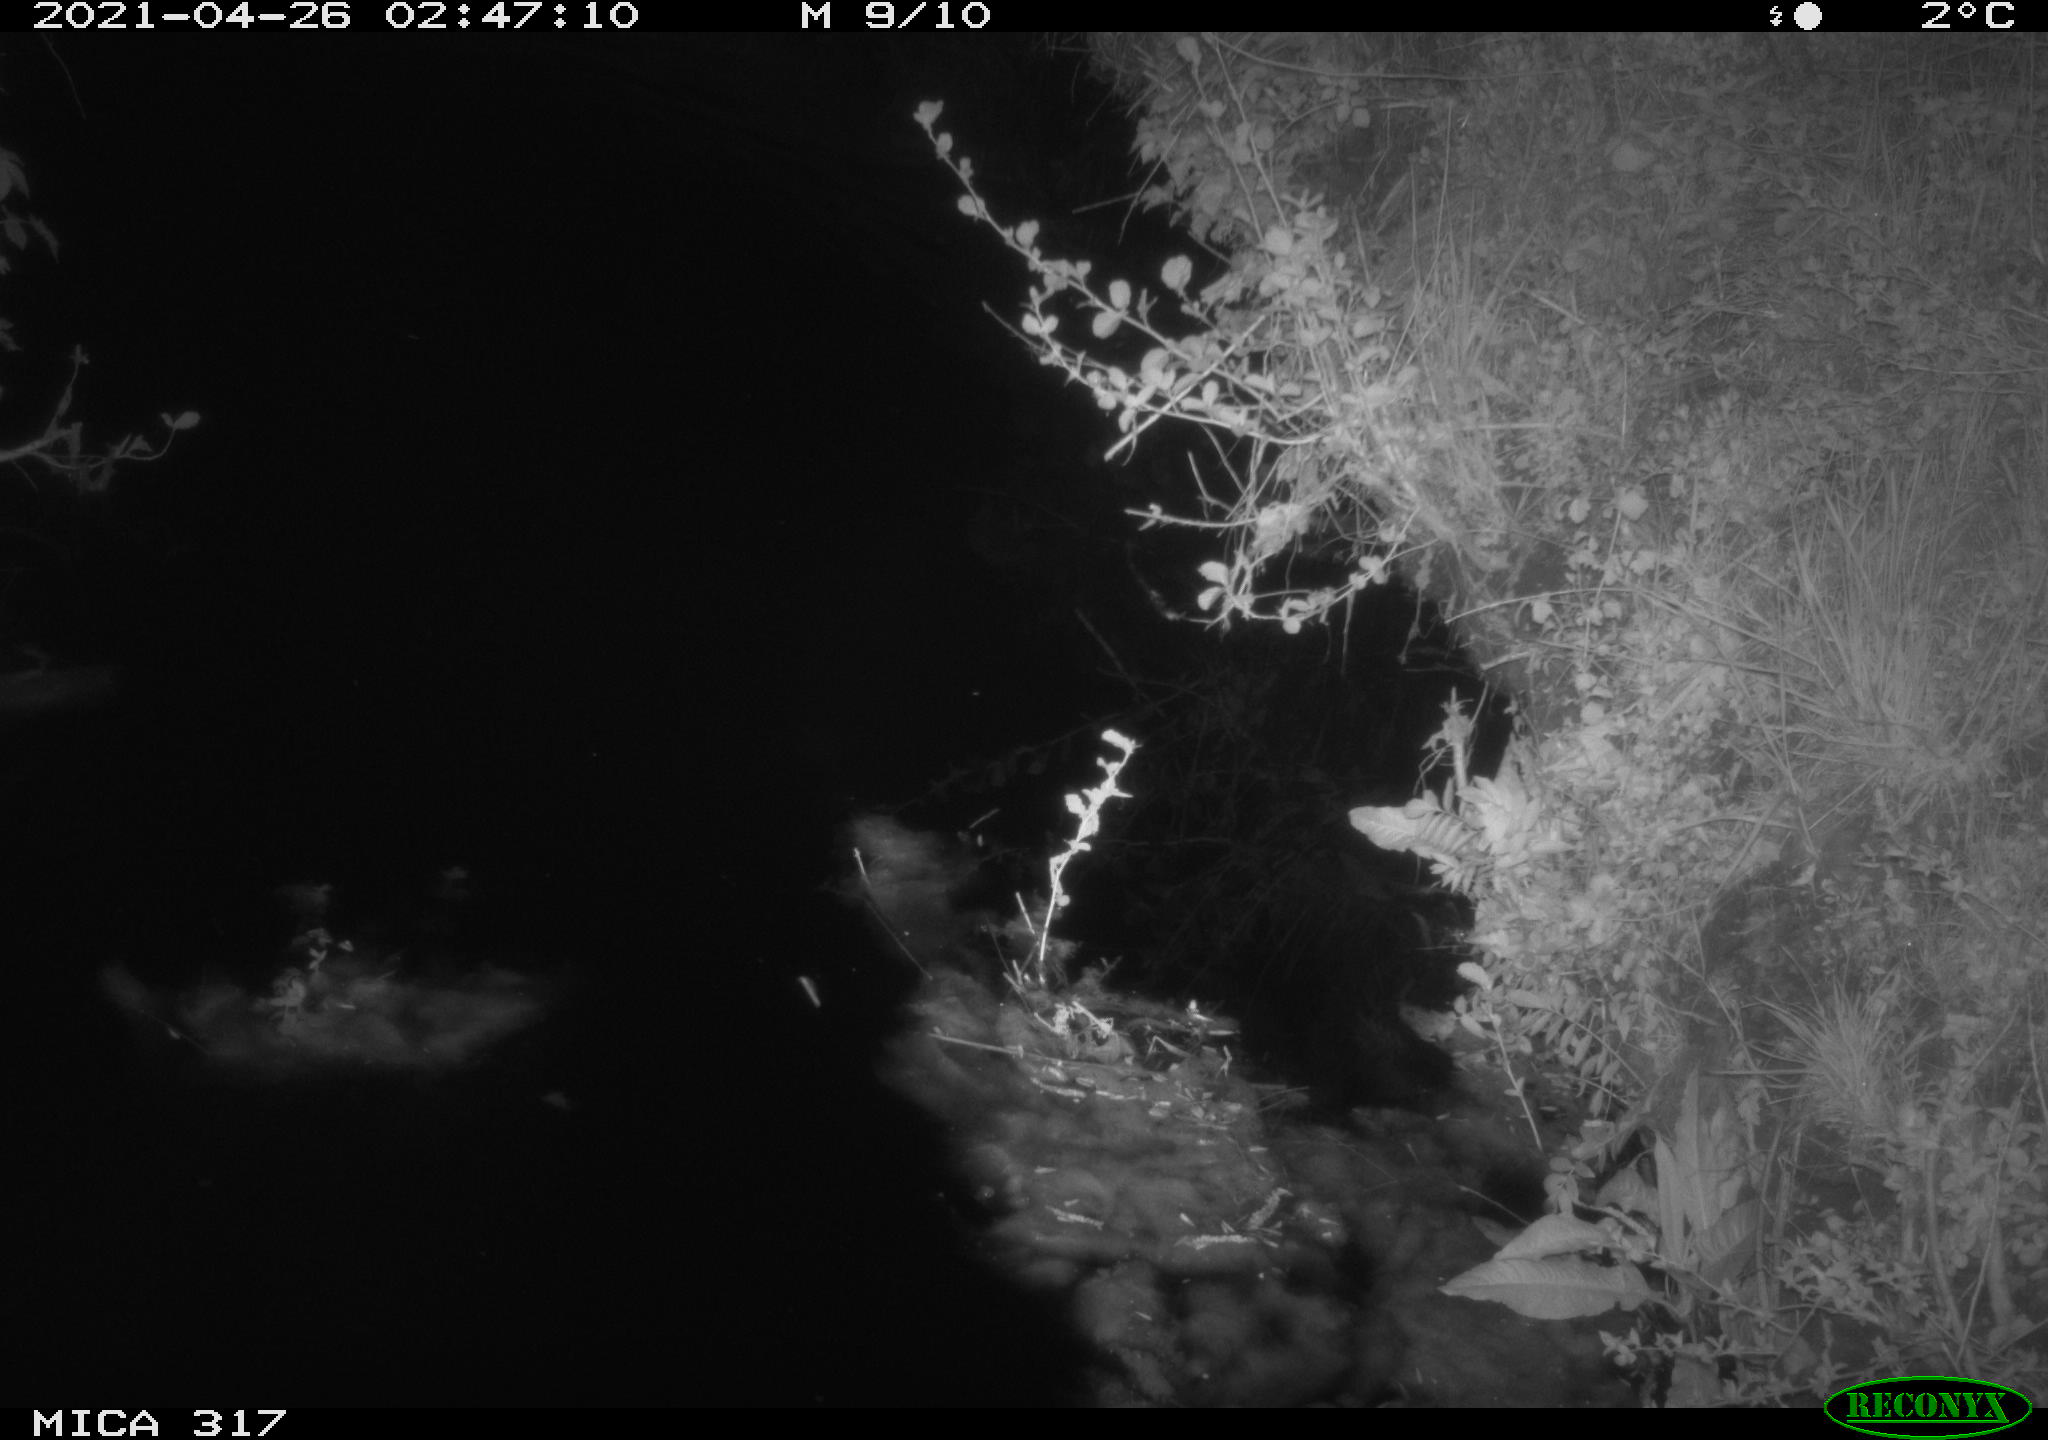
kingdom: Animalia
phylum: Chordata
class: Aves
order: Anseriformes
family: Anatidae
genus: Anas
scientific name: Anas
